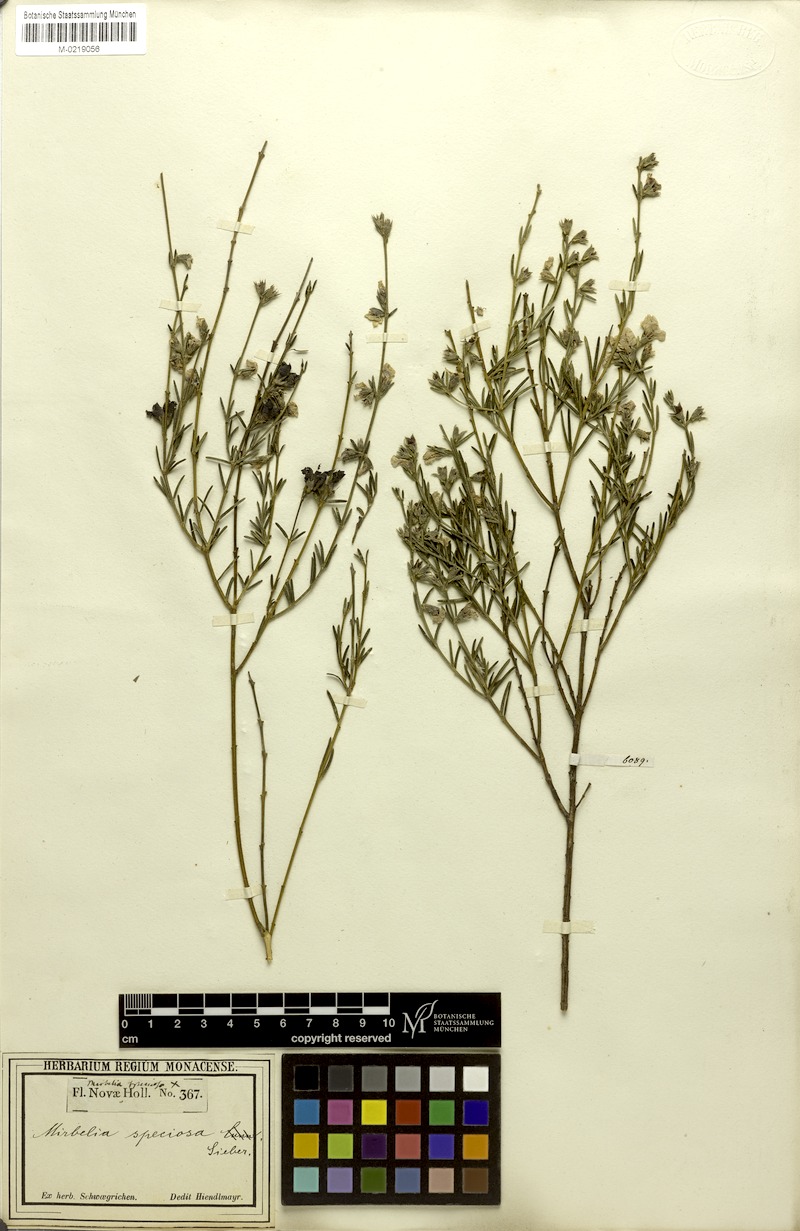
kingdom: Plantae
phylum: Tracheophyta
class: Magnoliopsida
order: Fabales
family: Fabaceae
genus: Mirbelia
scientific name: Mirbelia speciosa
